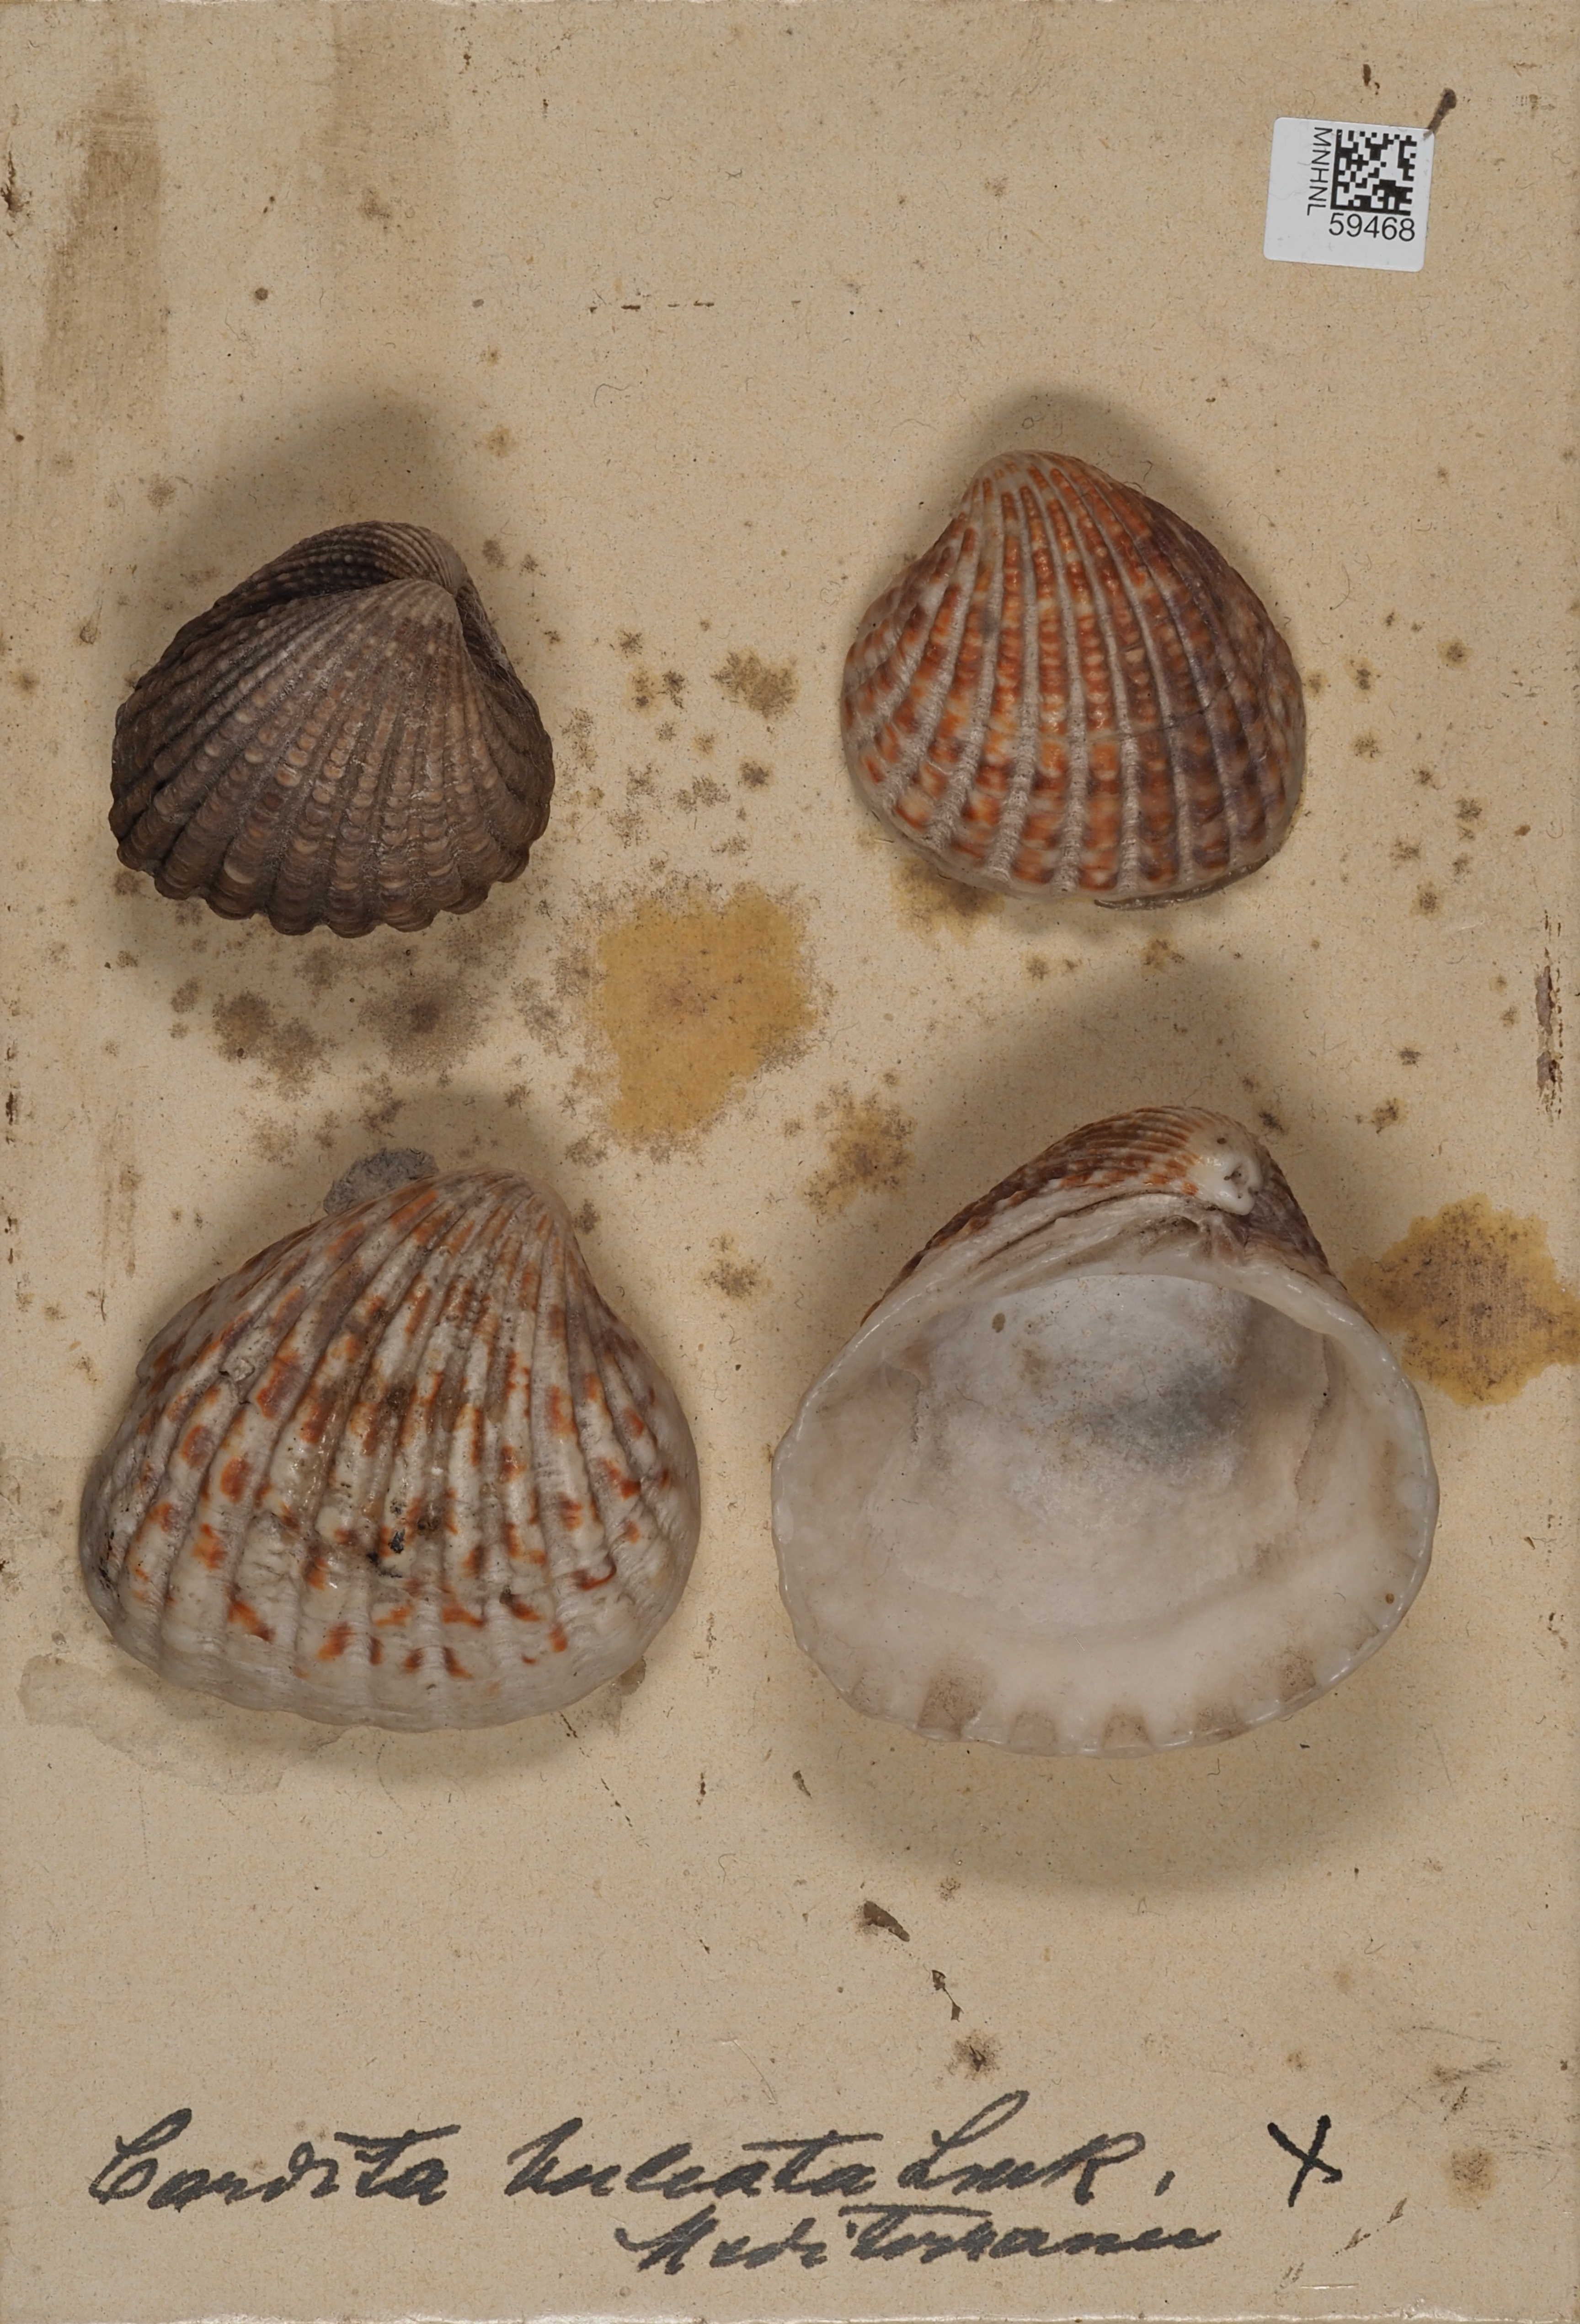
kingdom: Animalia
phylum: Mollusca
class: Bivalvia
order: Carditida
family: Carditidae
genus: Cardites
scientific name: Cardites antiquatus
